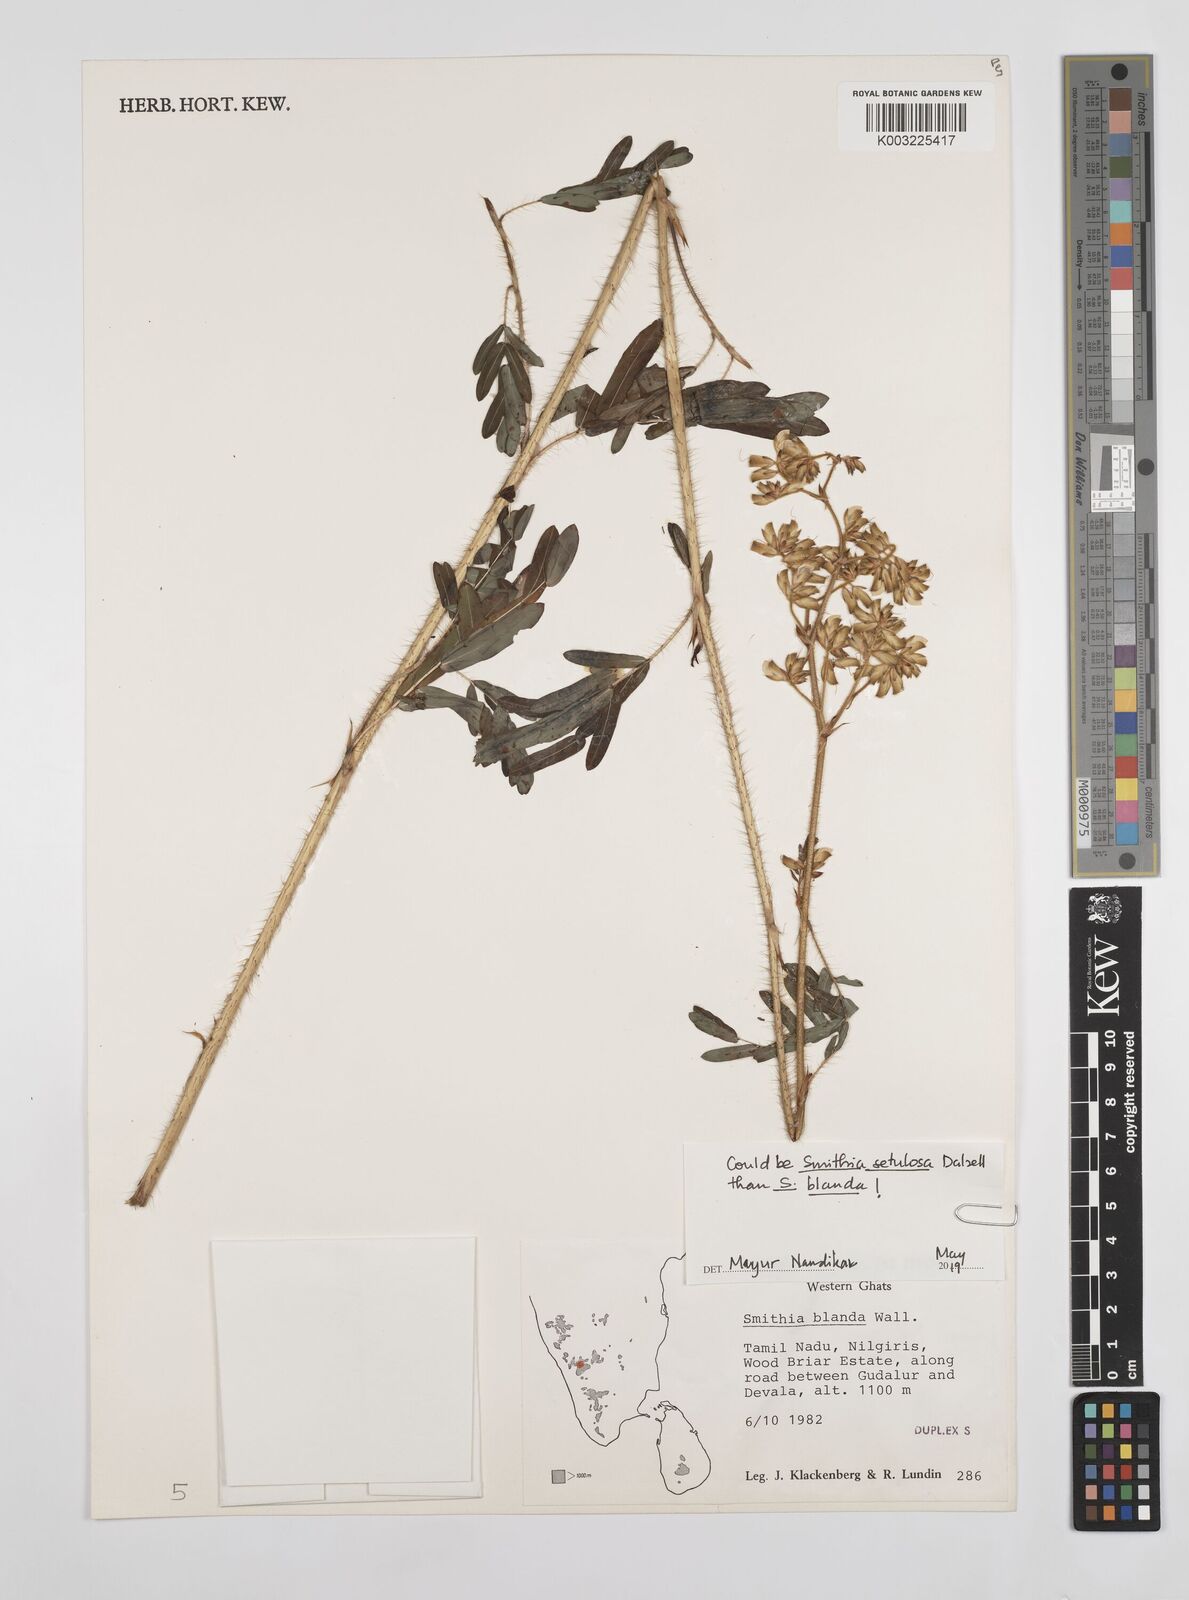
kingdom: Plantae
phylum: Tracheophyta
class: Magnoliopsida
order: Fabales
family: Fabaceae
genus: Smithia
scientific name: Smithia blanda
